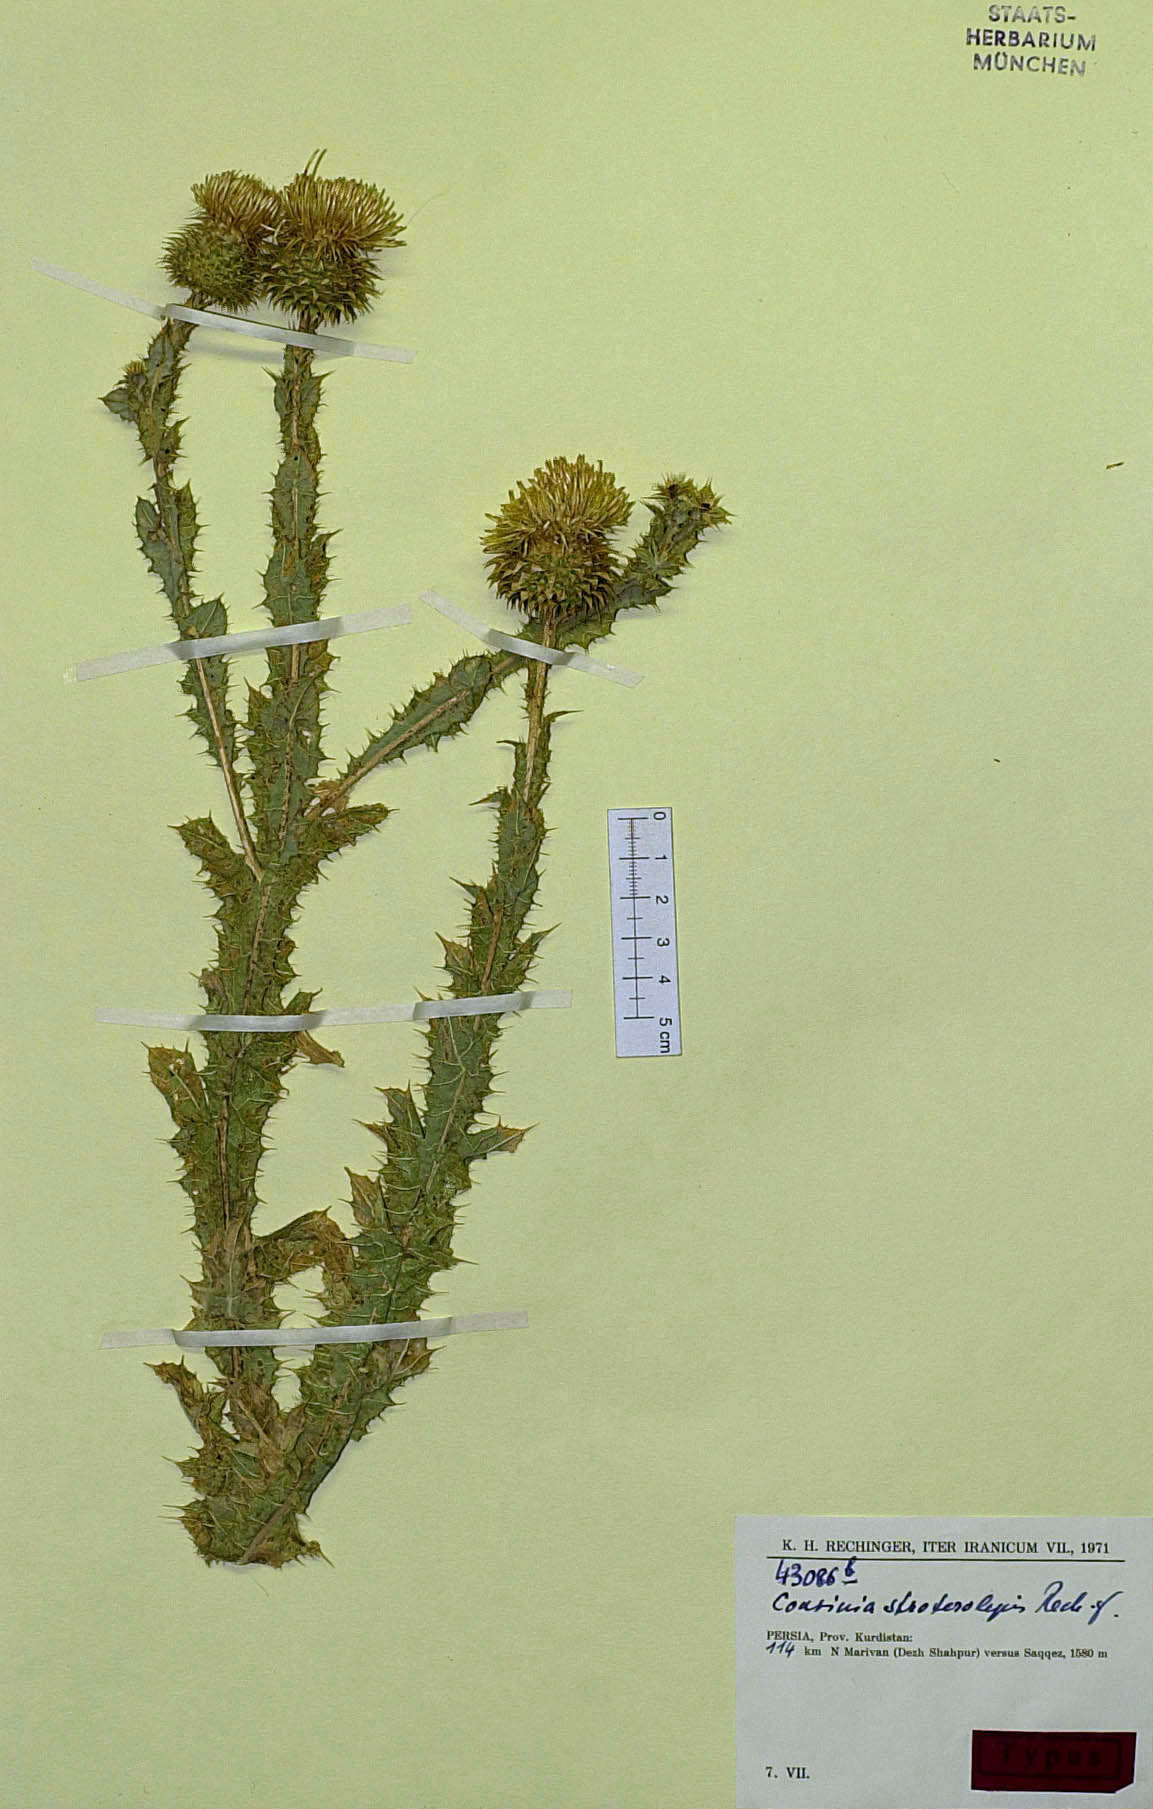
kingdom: Plantae
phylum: Tracheophyta
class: Magnoliopsida
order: Asterales
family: Asteraceae
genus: Cousinia
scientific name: Cousinia stroterolepis
